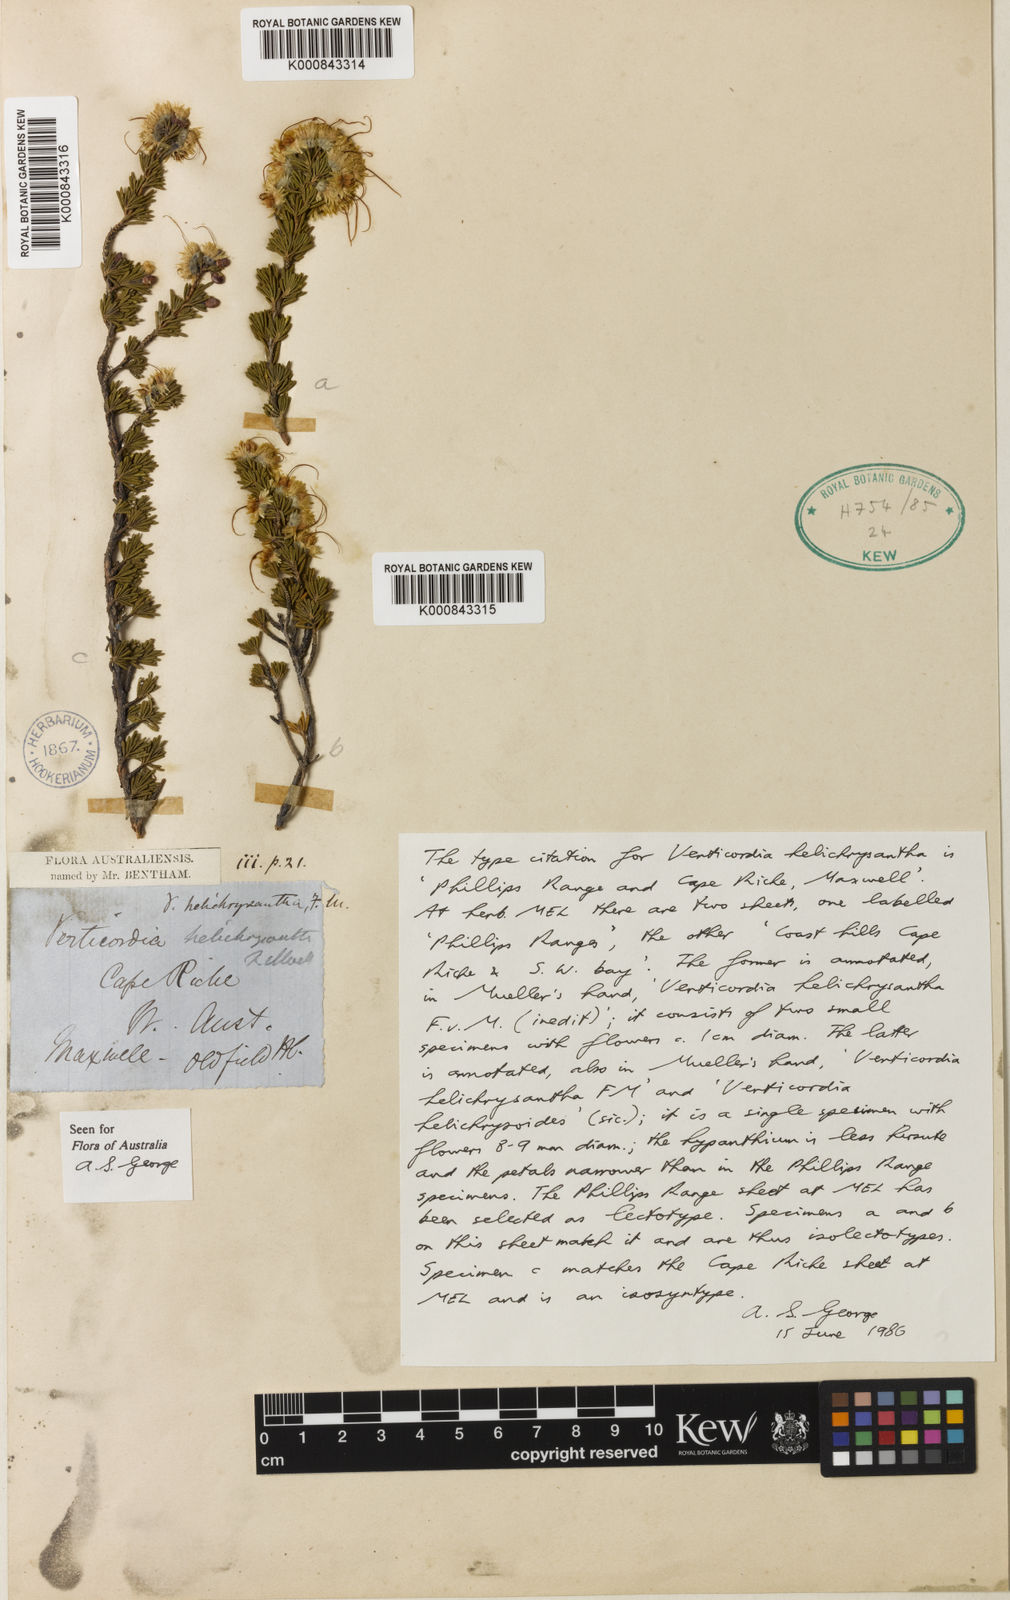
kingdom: Plantae
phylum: Tracheophyta
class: Magnoliopsida
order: Myrtales
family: Myrtaceae
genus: Verticordia
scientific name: Verticordia helichrysantha
